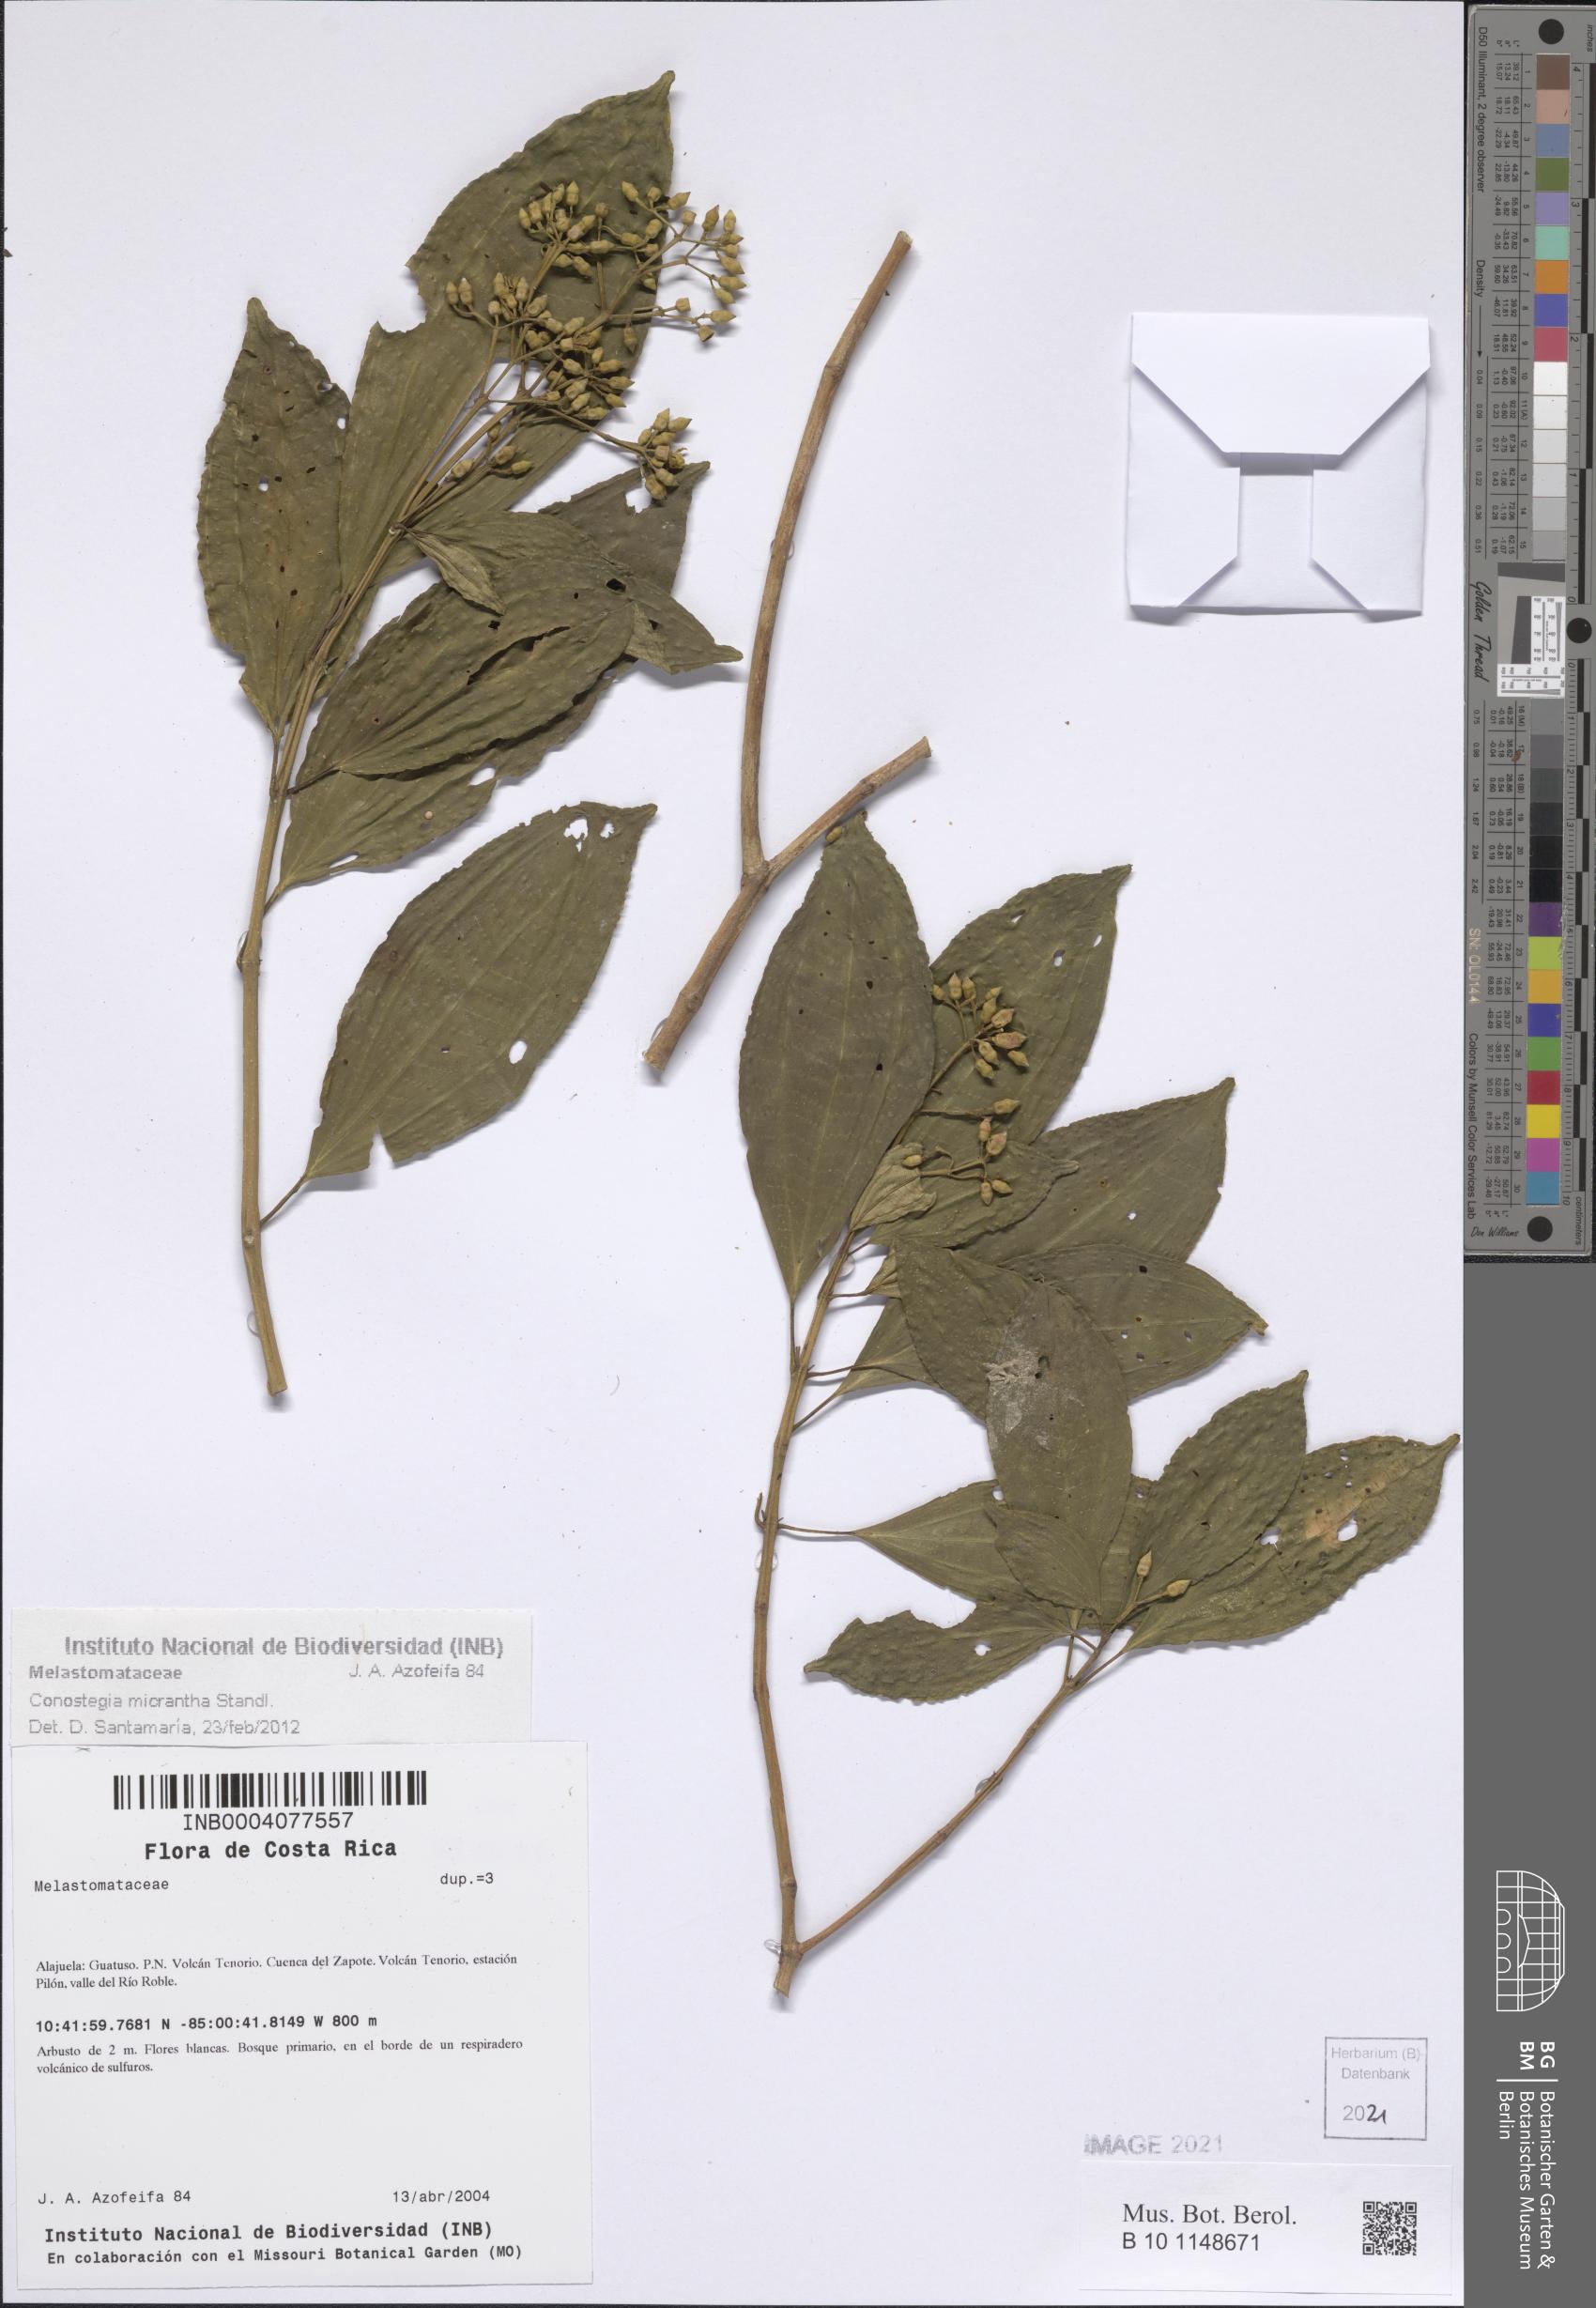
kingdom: Plantae
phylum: Tracheophyta
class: Magnoliopsida
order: Myrtales
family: Melastomataceae
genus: Miconia
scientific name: Miconia conomicrantha
